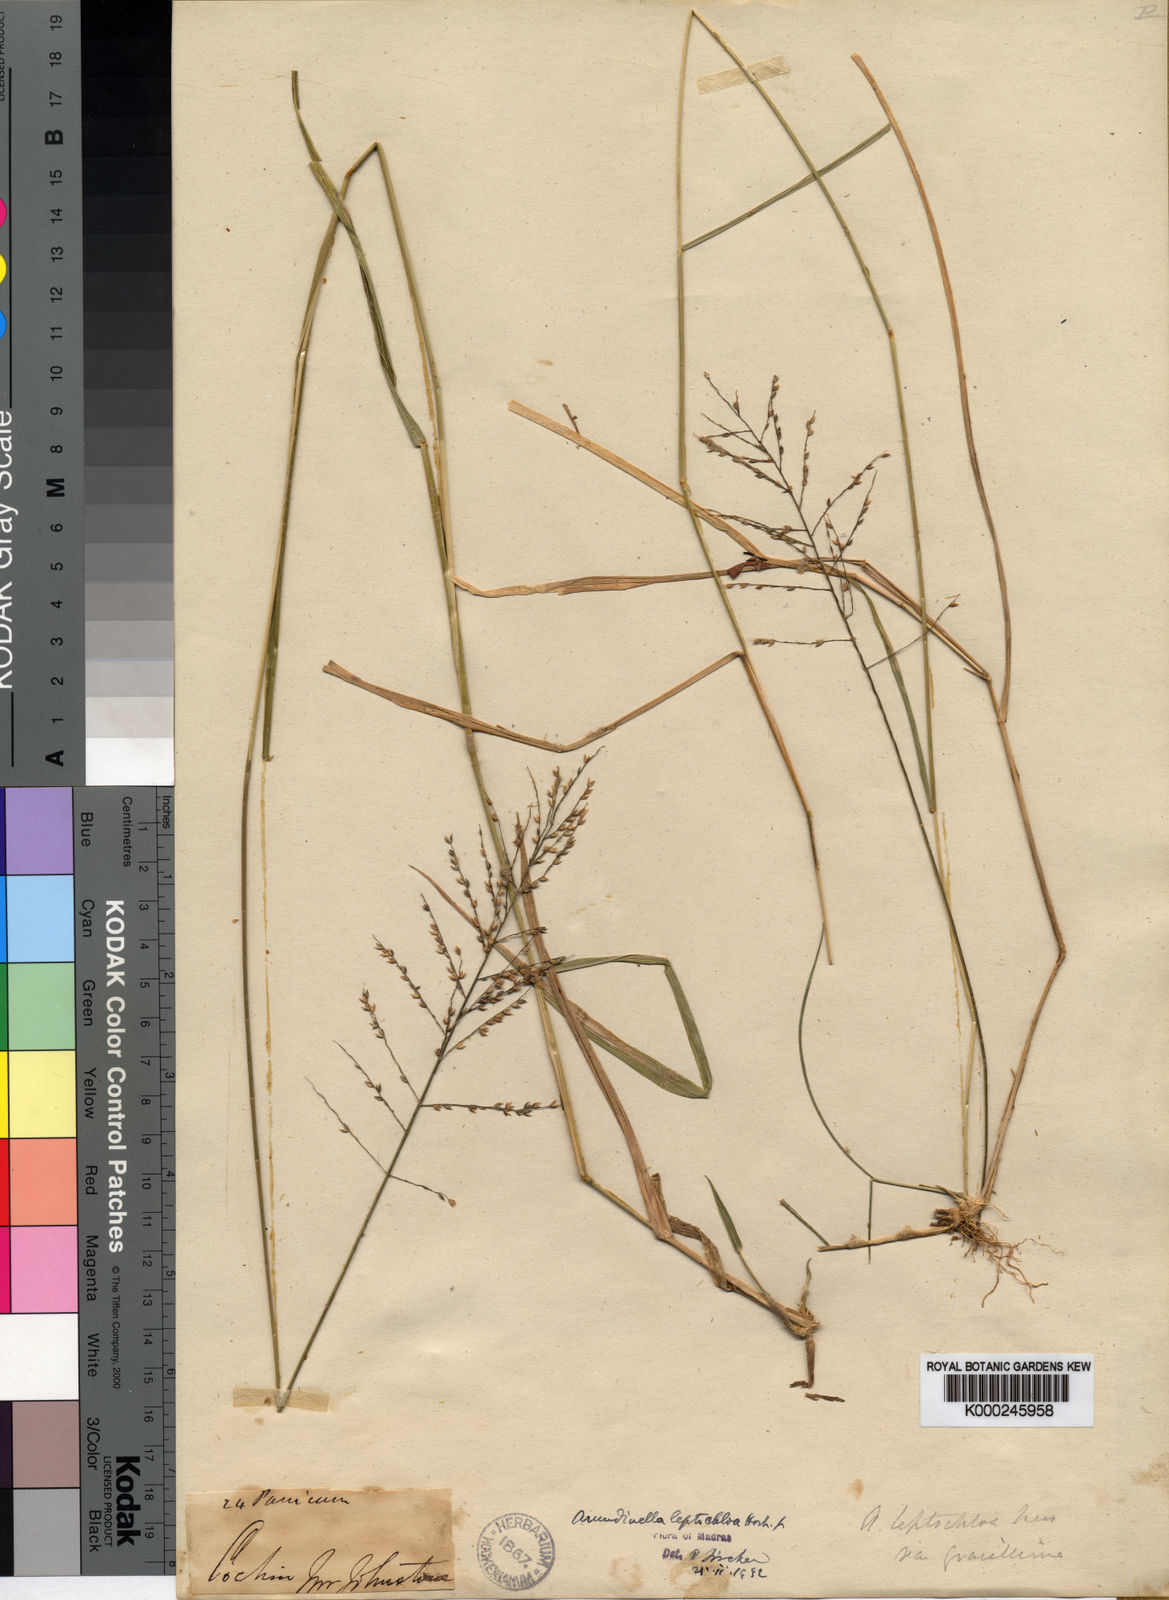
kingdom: Plantae
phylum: Tracheophyta
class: Liliopsida
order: Poales
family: Poaceae
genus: Arundinella
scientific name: Arundinella leptochloa
